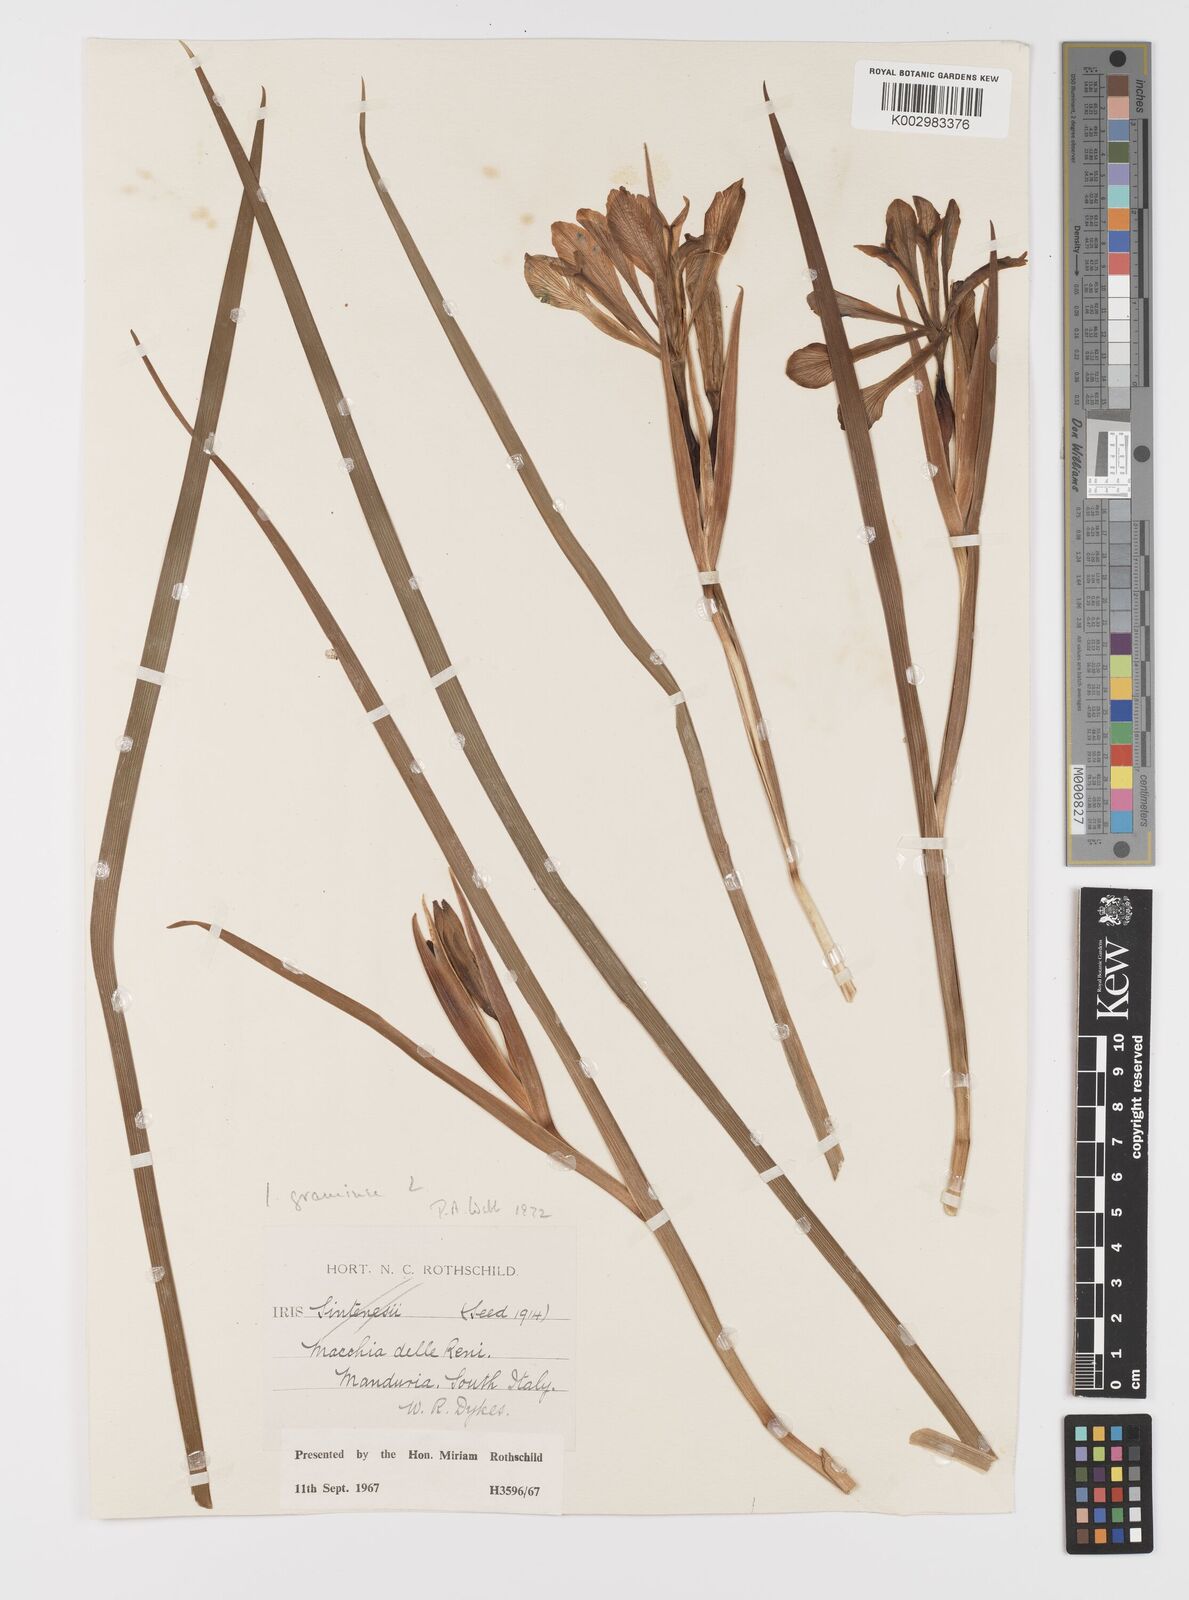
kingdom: Plantae
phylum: Tracheophyta
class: Liliopsida
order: Asparagales
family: Iridaceae
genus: Iris
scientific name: Iris
